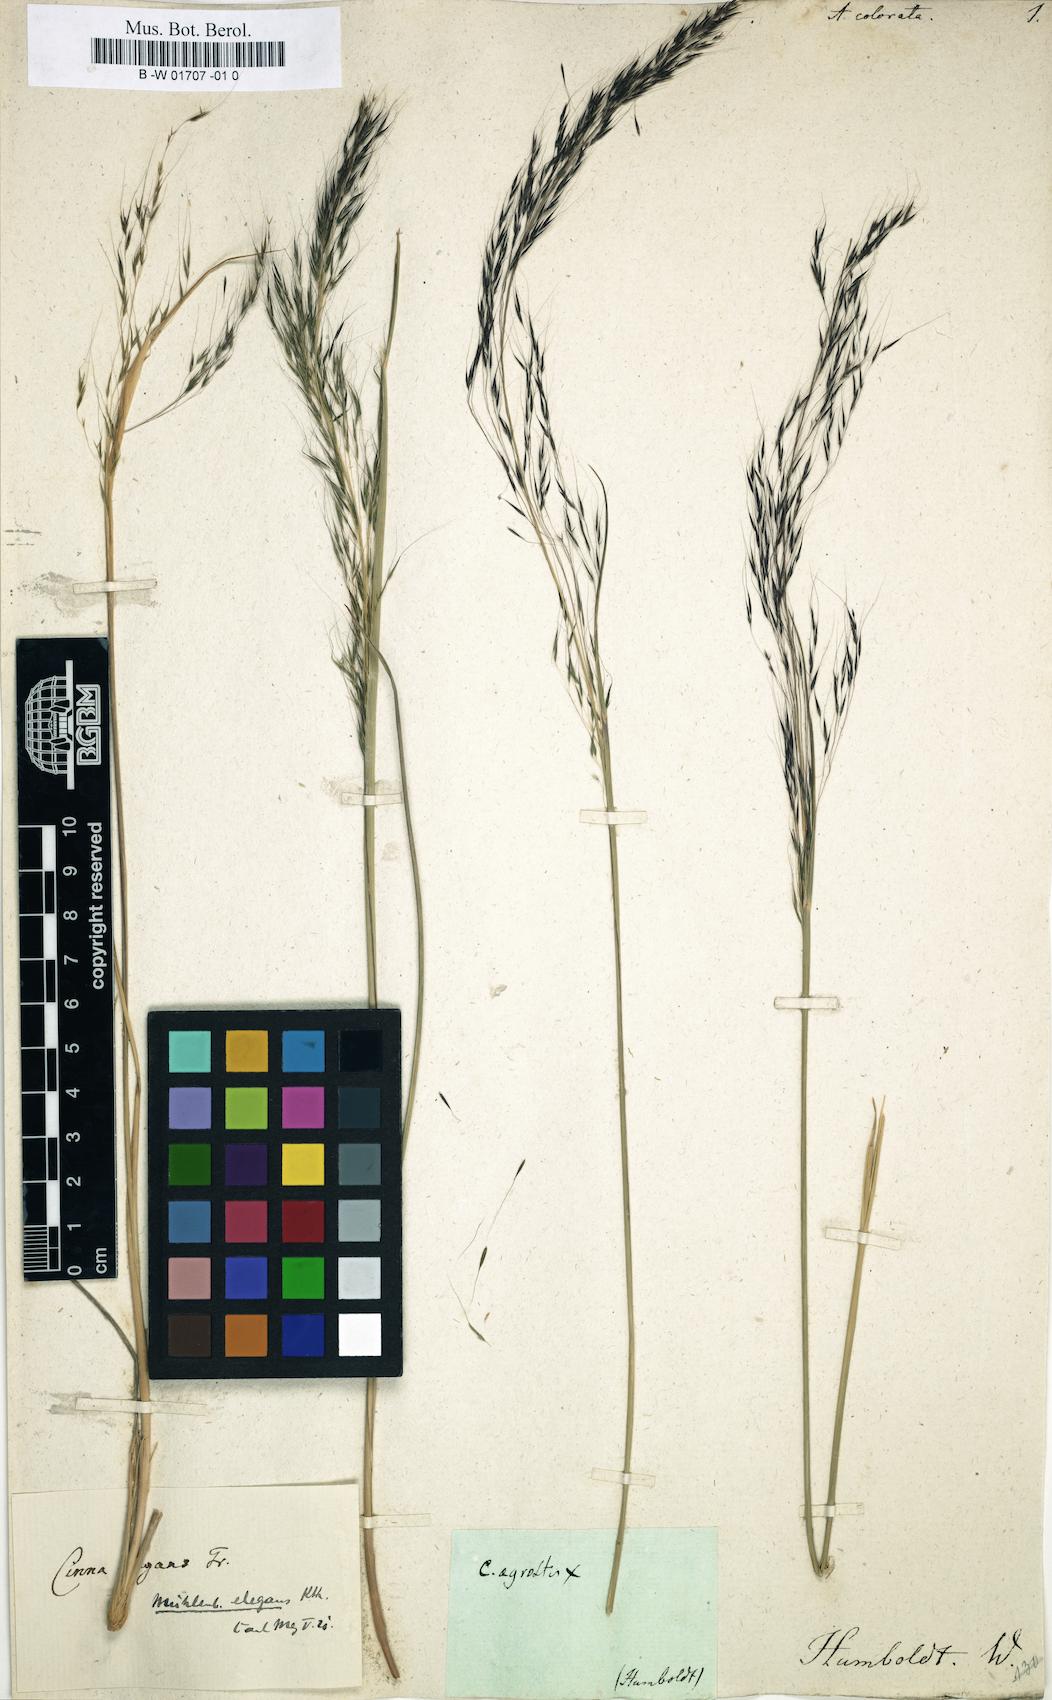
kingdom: Plantae
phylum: Tracheophyta
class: Liliopsida
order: Poales
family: Poaceae
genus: Muhlenbergia
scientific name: Muhlenbergia rigida
